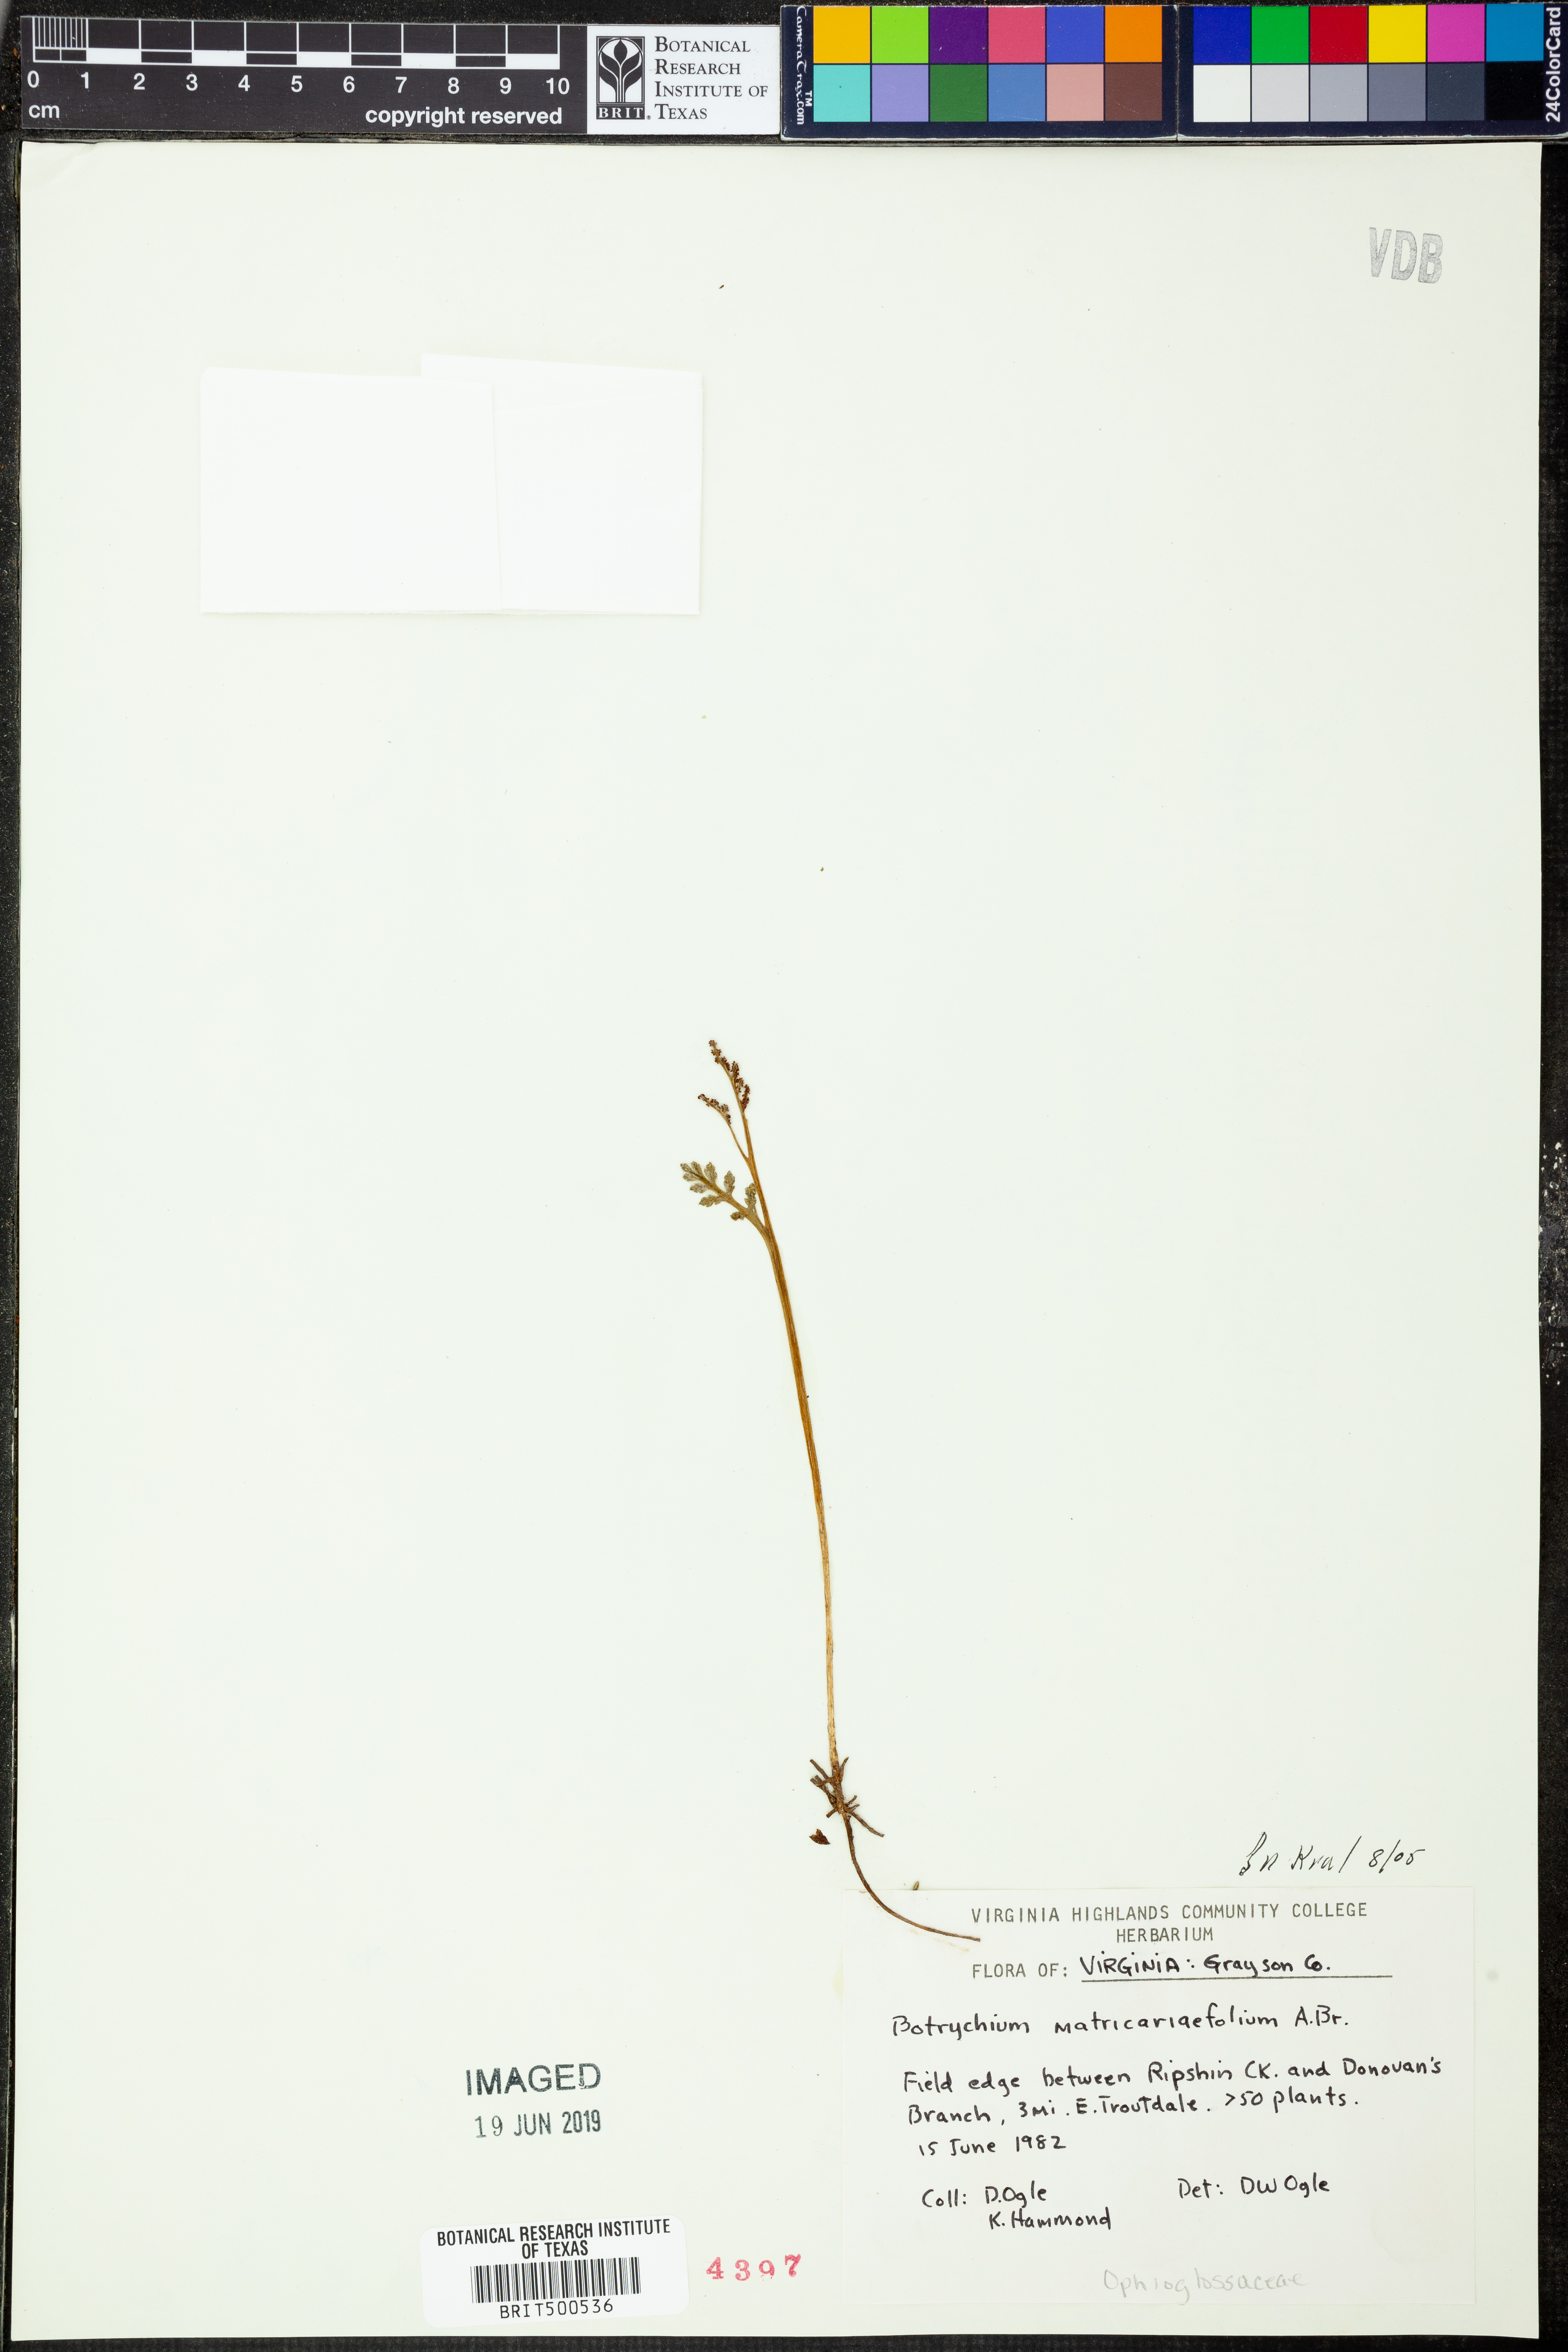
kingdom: Plantae
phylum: Tracheophyta
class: Polypodiopsida
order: Ophioglossales
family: Ophioglossaceae
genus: Botrychium
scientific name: Botrychium matricariifolium
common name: Branched moonwort
